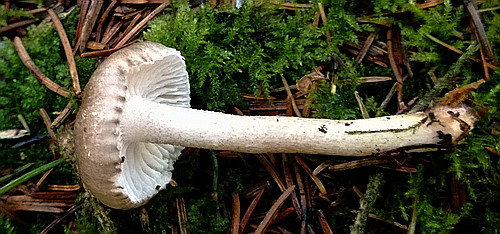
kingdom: Fungi
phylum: Basidiomycota
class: Agaricomycetes
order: Agaricales
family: Hygrophoraceae
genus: Hygrophorus
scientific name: Hygrophorus pustulatus
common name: mørkprikket sneglehat
